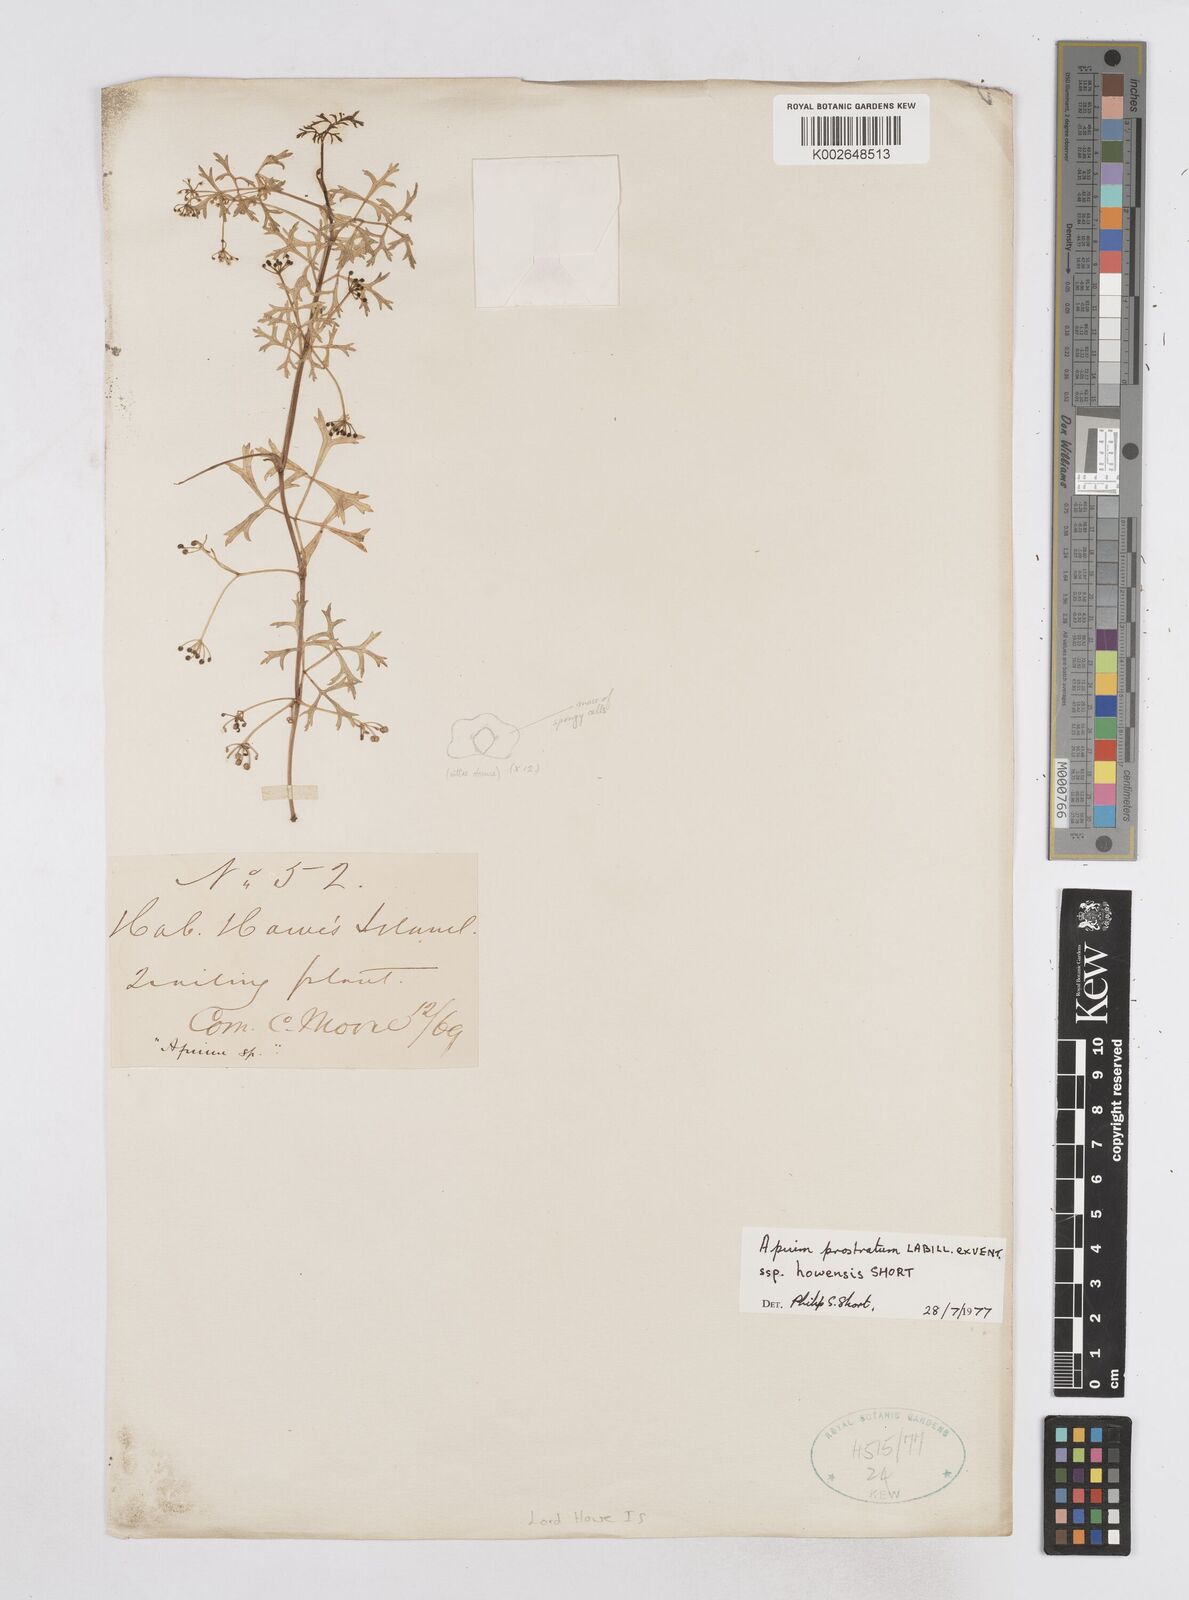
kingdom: Plantae
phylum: Tracheophyta
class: Magnoliopsida
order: Apiales
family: Apiaceae
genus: Apium
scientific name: Apium prostratum
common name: Prostrate marshwort
